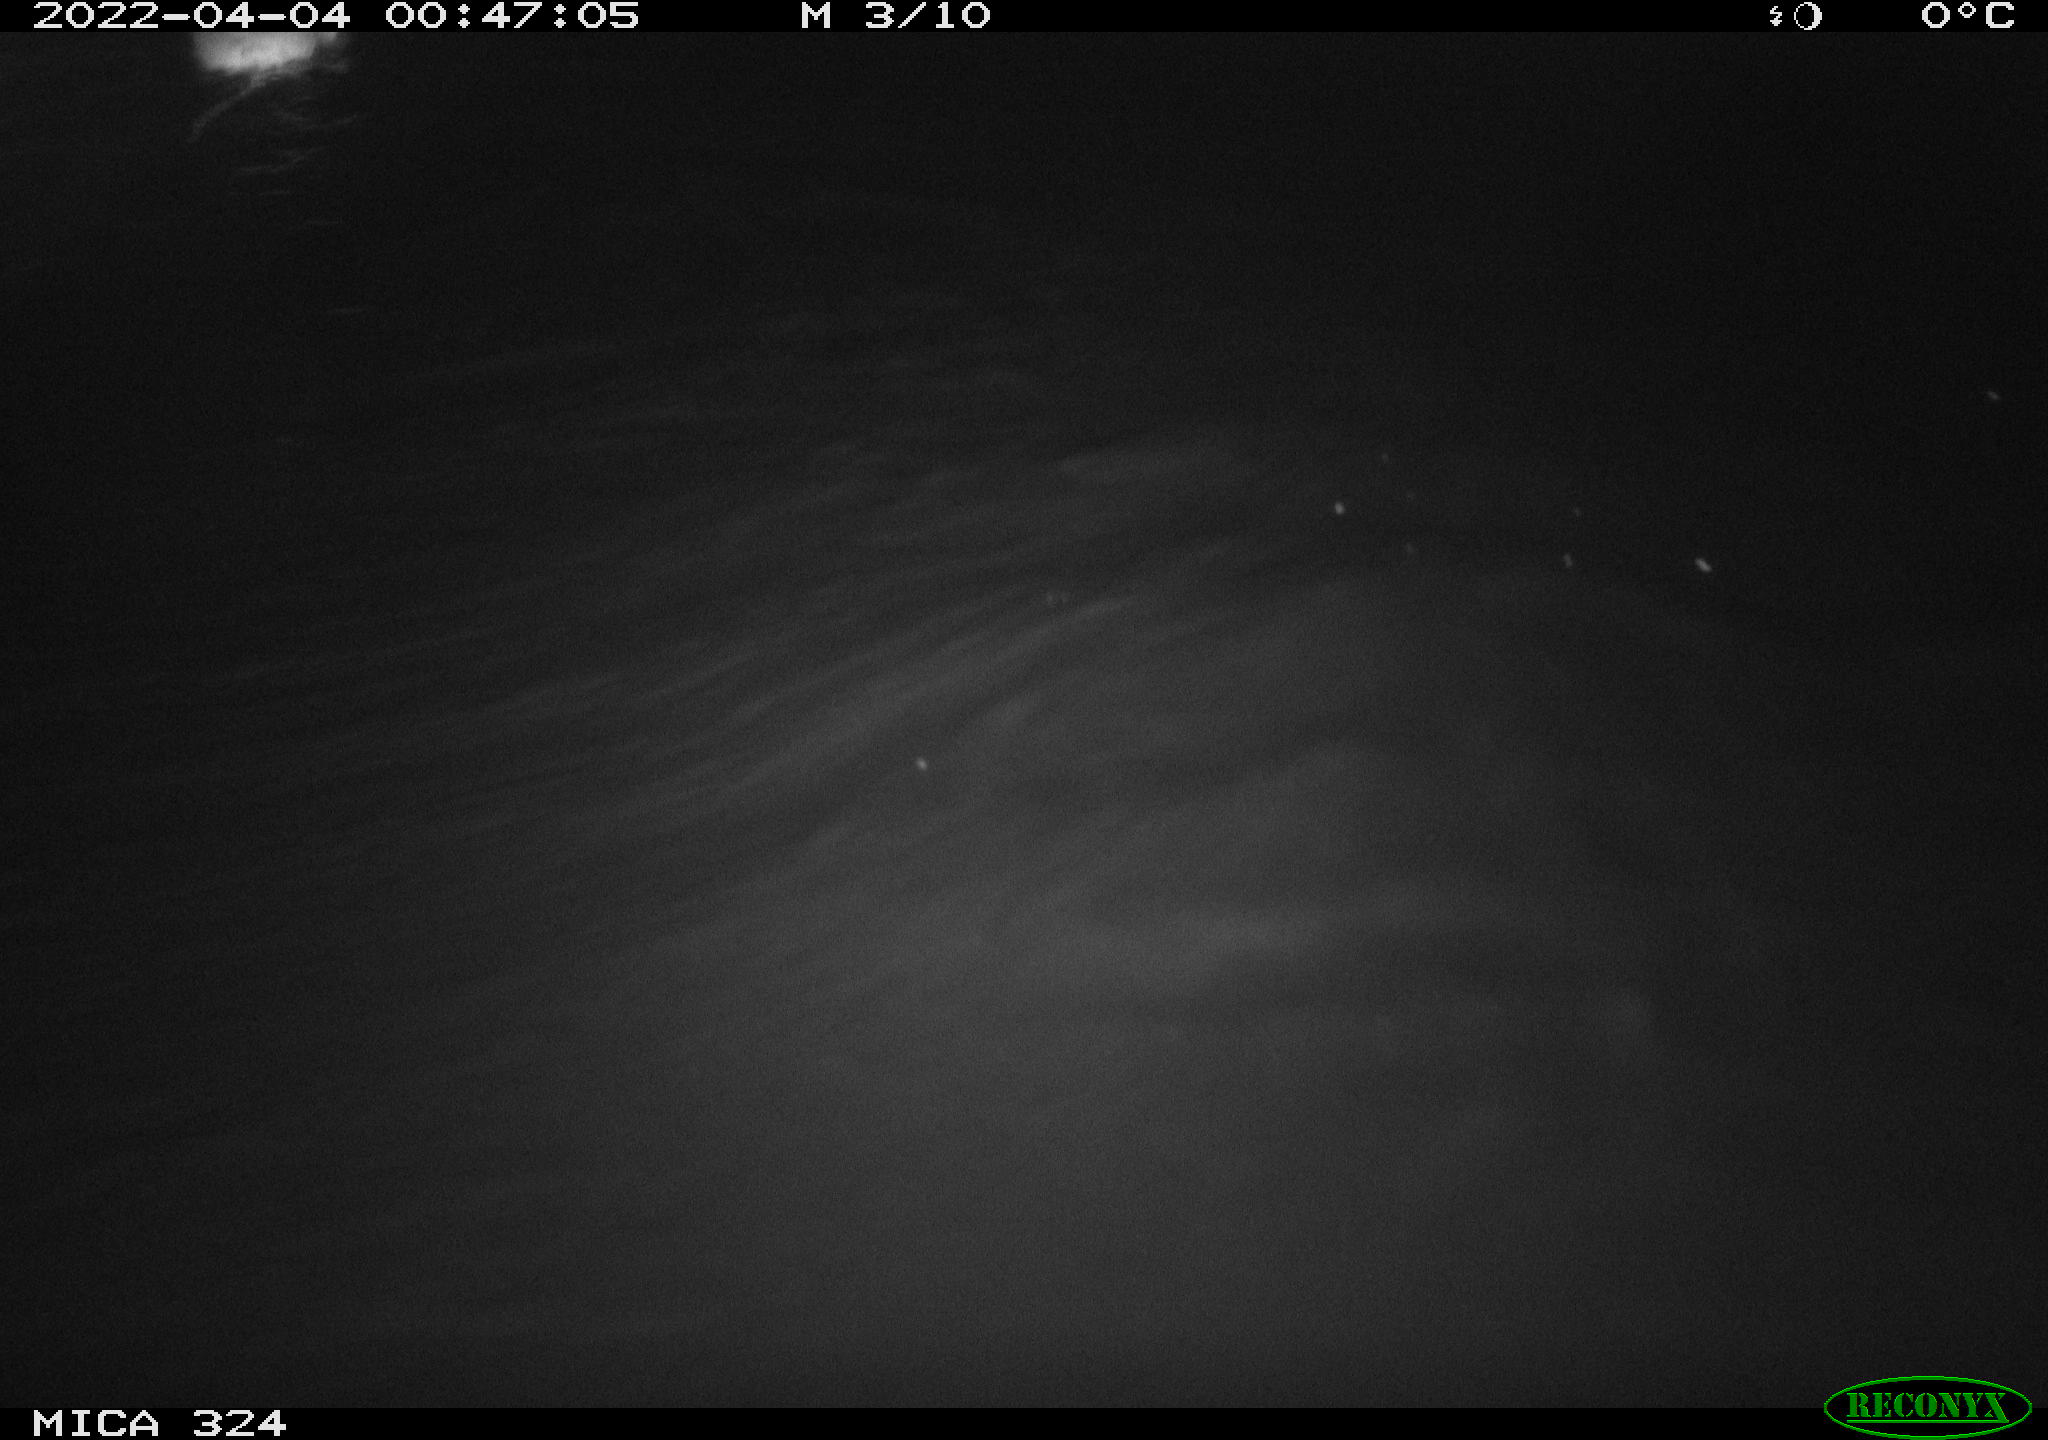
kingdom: Animalia
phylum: Chordata
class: Mammalia
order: Rodentia
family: Cricetidae
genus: Ondatra
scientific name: Ondatra zibethicus
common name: Muskrat
